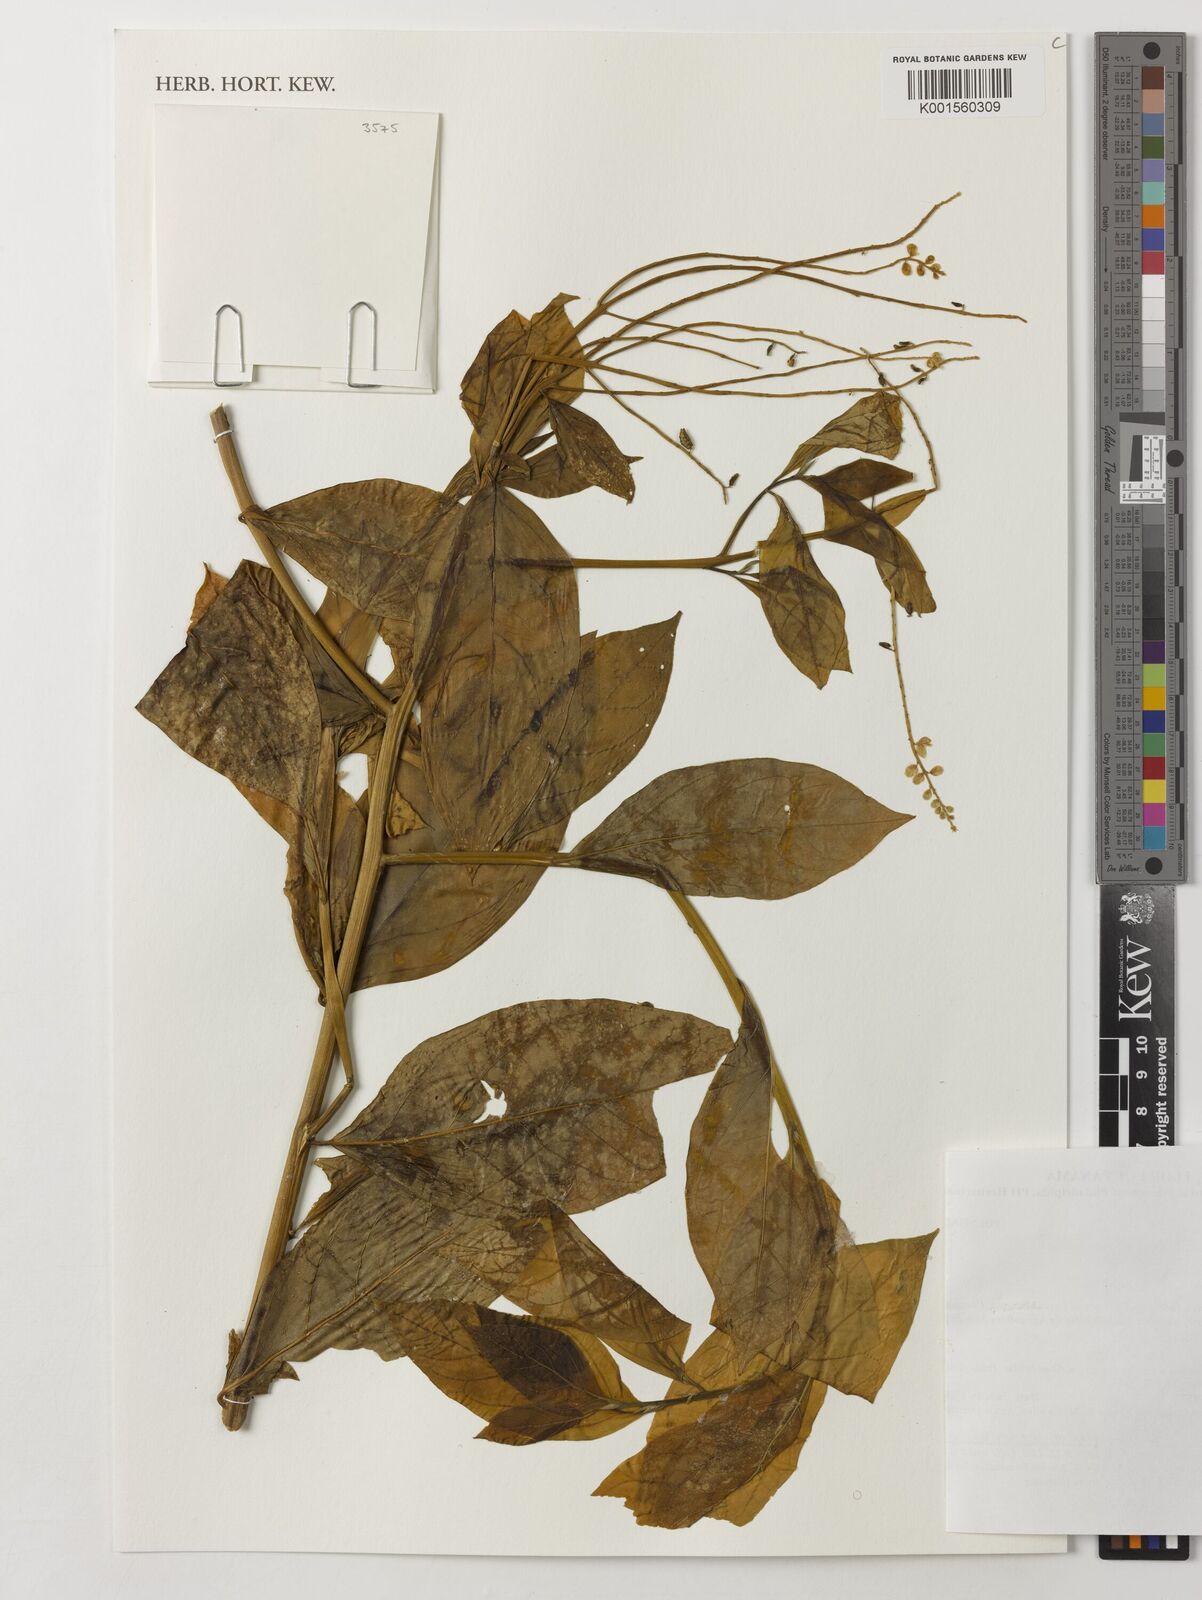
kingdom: Plantae
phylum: Tracheophyta
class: Magnoliopsida
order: Fabales
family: Polygalaceae
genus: Monnina
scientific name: Monnina
